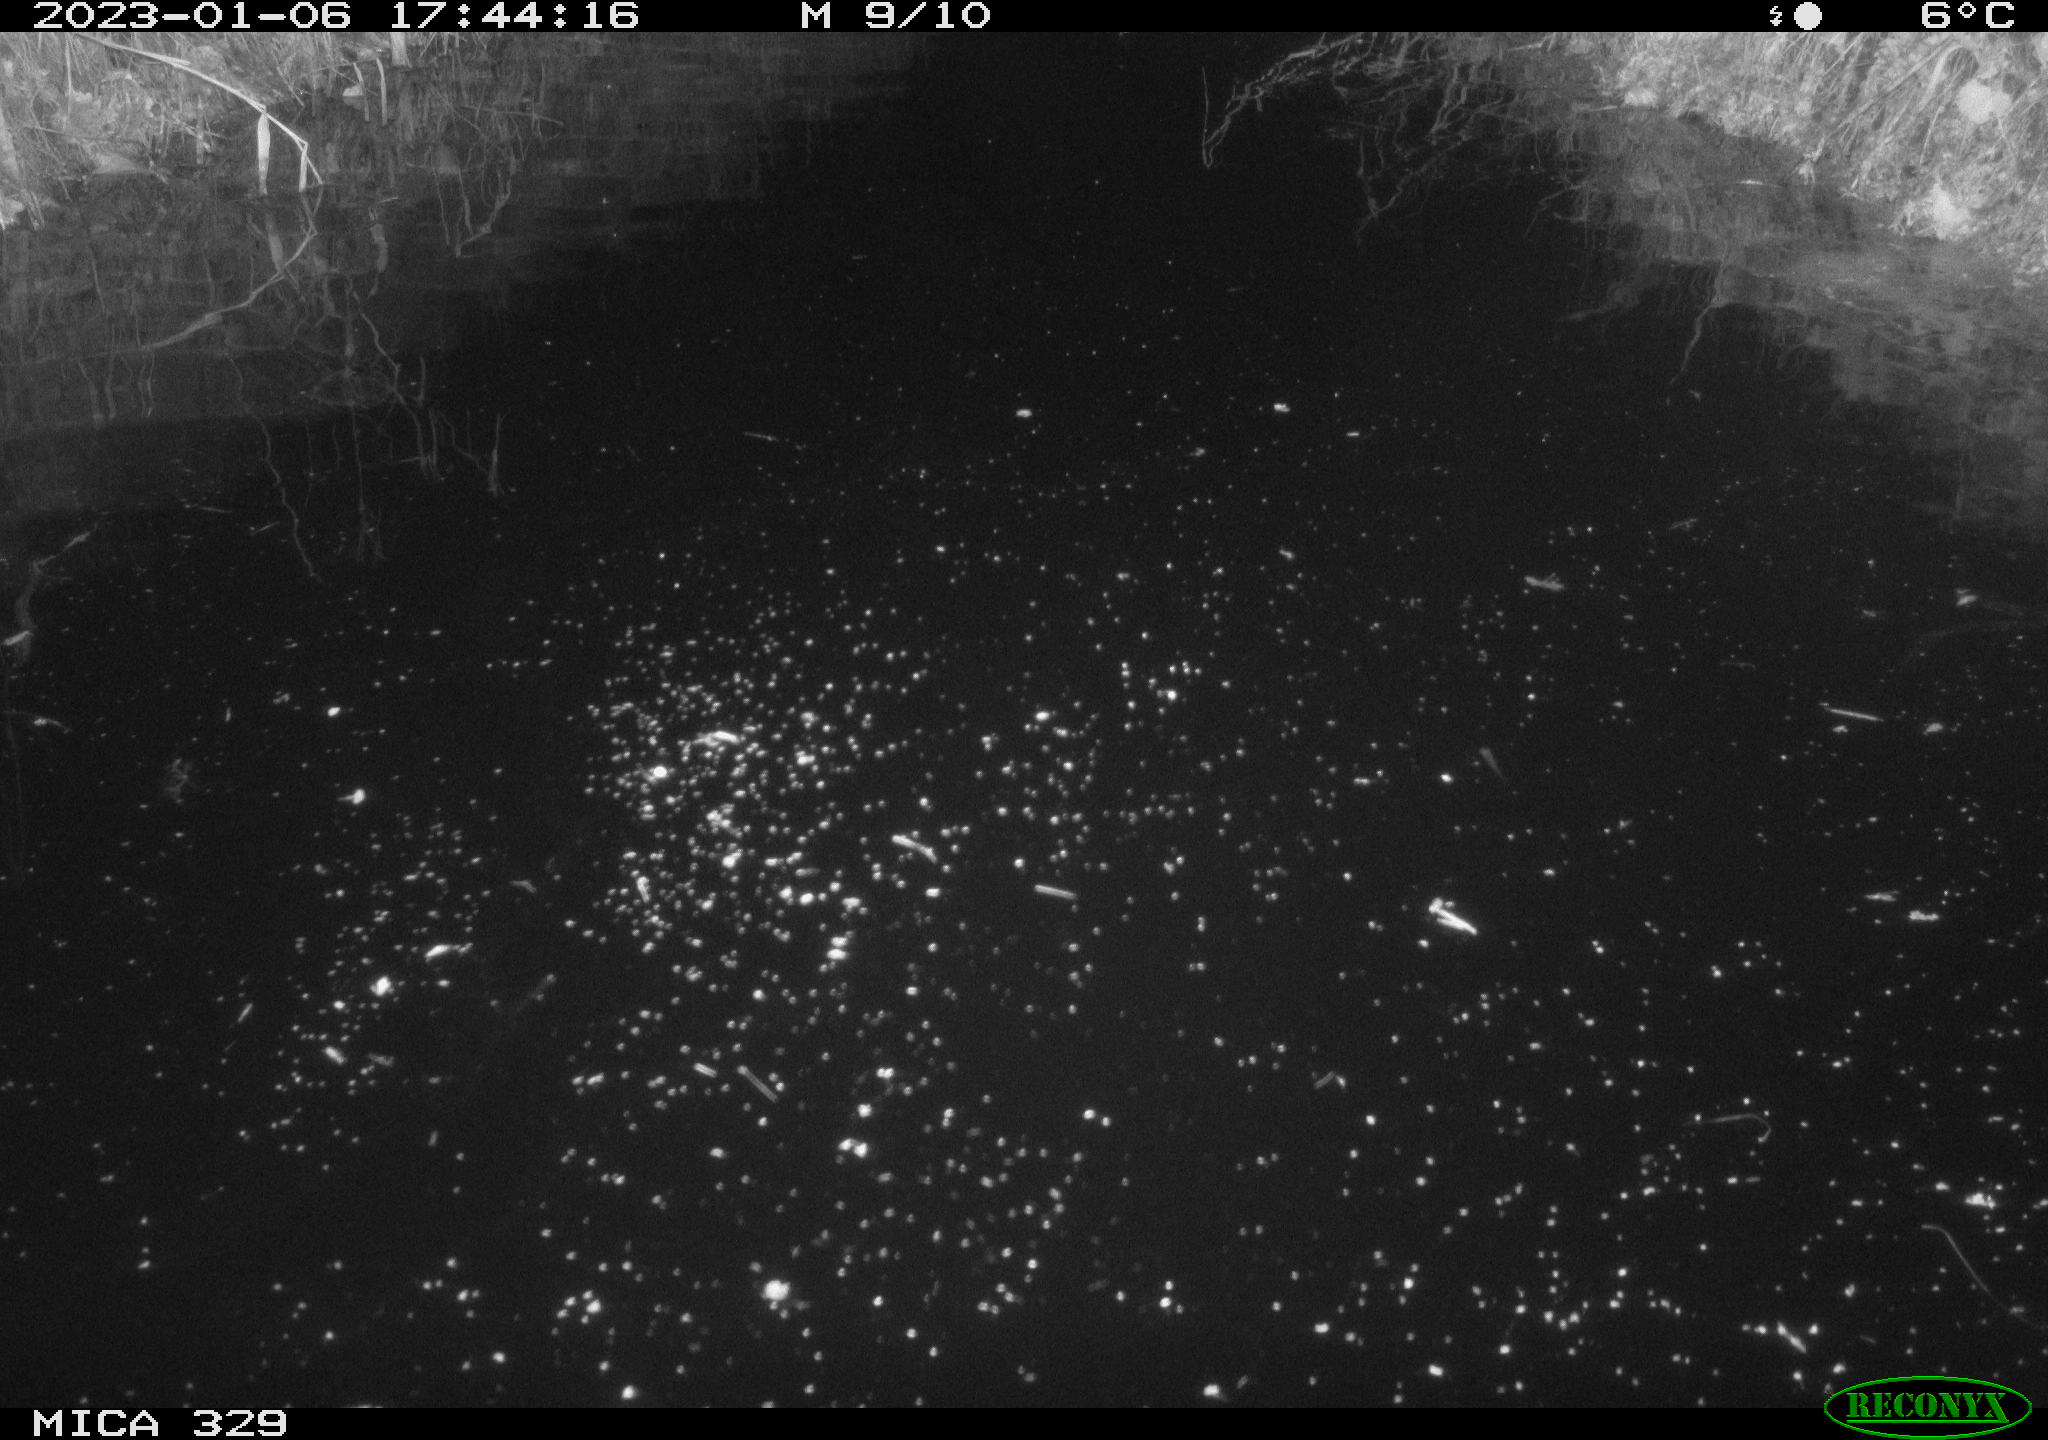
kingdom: Animalia
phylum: Chordata
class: Mammalia
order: Rodentia
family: Cricetidae
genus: Ondatra
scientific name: Ondatra zibethicus
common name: Muskrat
